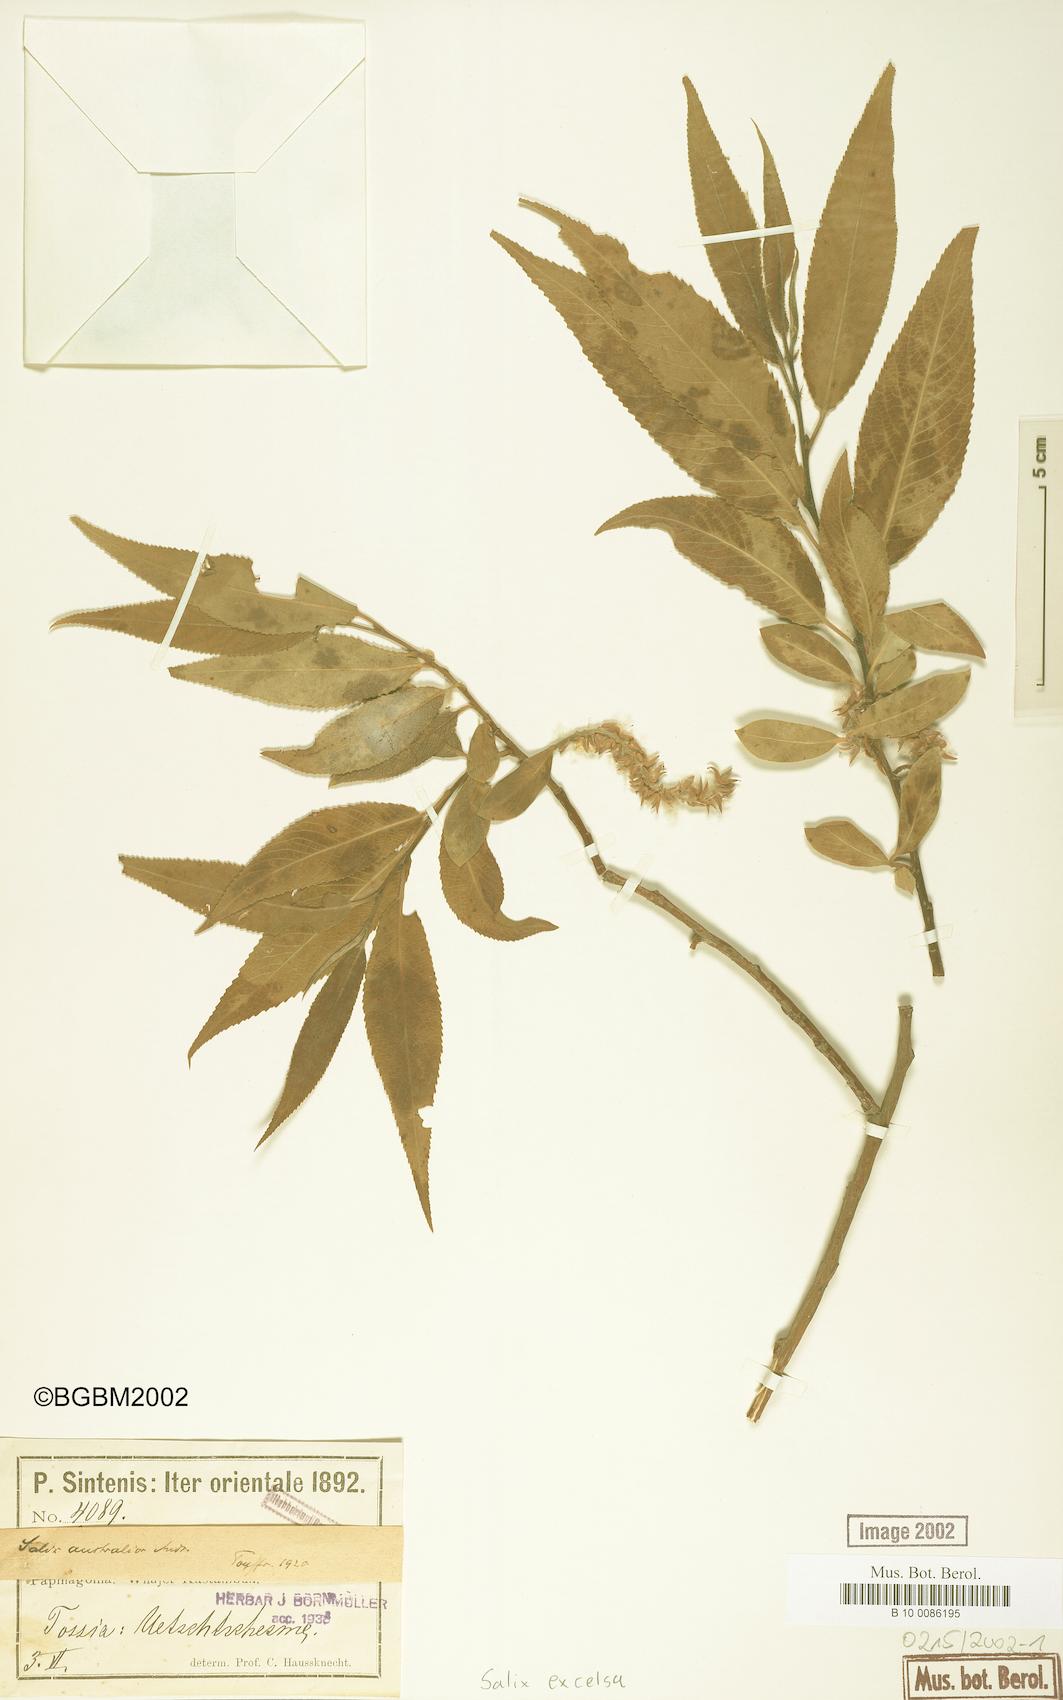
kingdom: Plantae
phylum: Tracheophyta
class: Magnoliopsida
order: Malpighiales
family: Salicaceae
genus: Salix
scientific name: Salix excelsa
